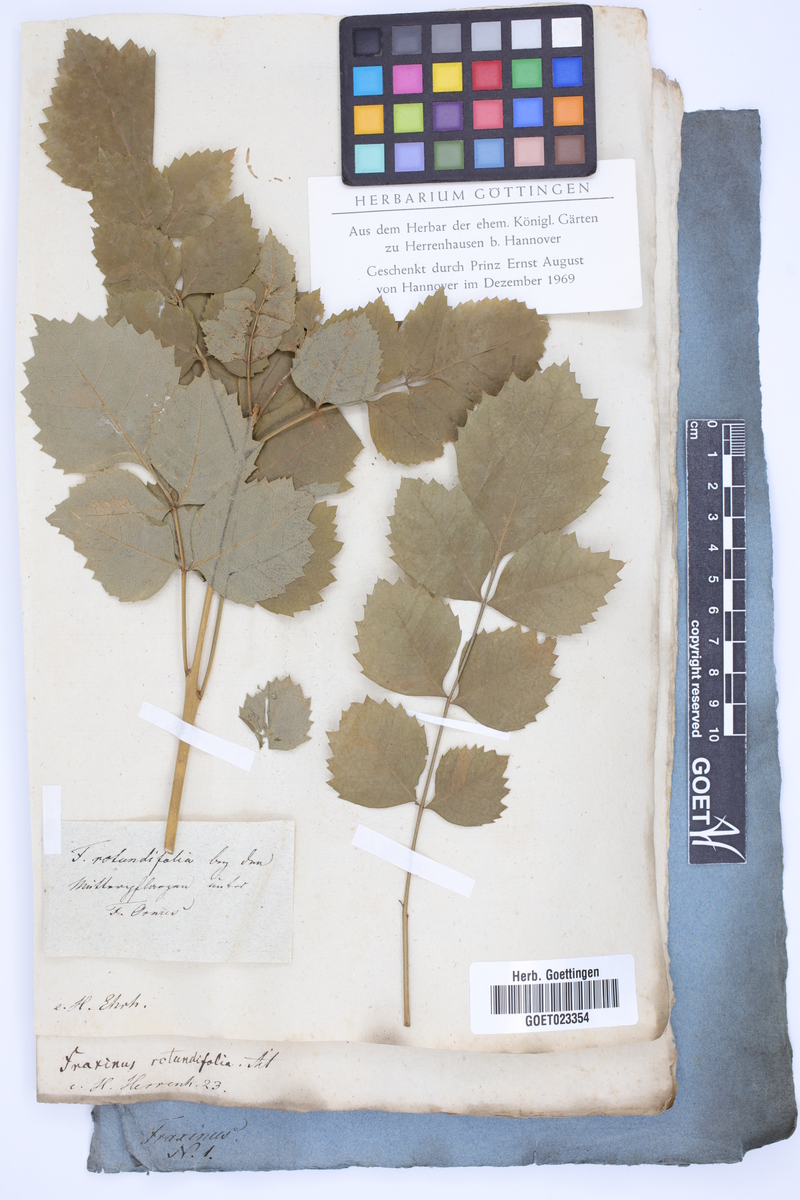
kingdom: Plantae
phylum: Tracheophyta
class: Magnoliopsida
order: Lamiales
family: Oleaceae
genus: Fraxinus
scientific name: Fraxinus ornus
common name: Manna ash
